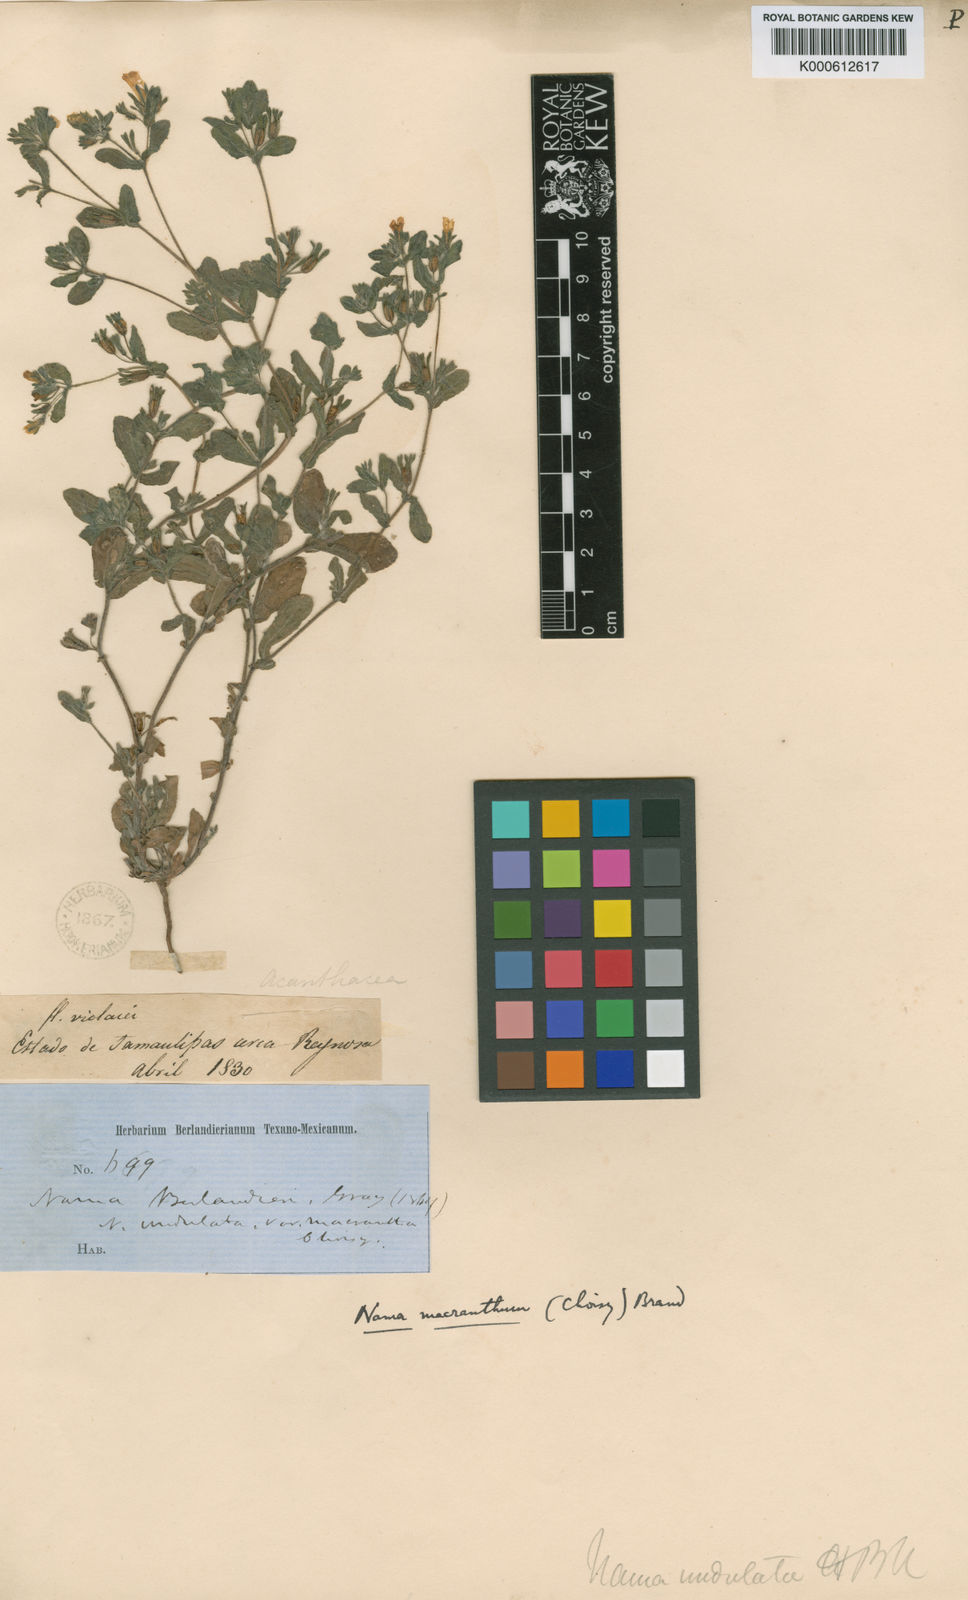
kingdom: Plantae
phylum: Tracheophyta
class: Magnoliopsida
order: Boraginales
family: Namaceae
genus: Nama
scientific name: Nama undulata
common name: Whitewhisker fiddleleaf
